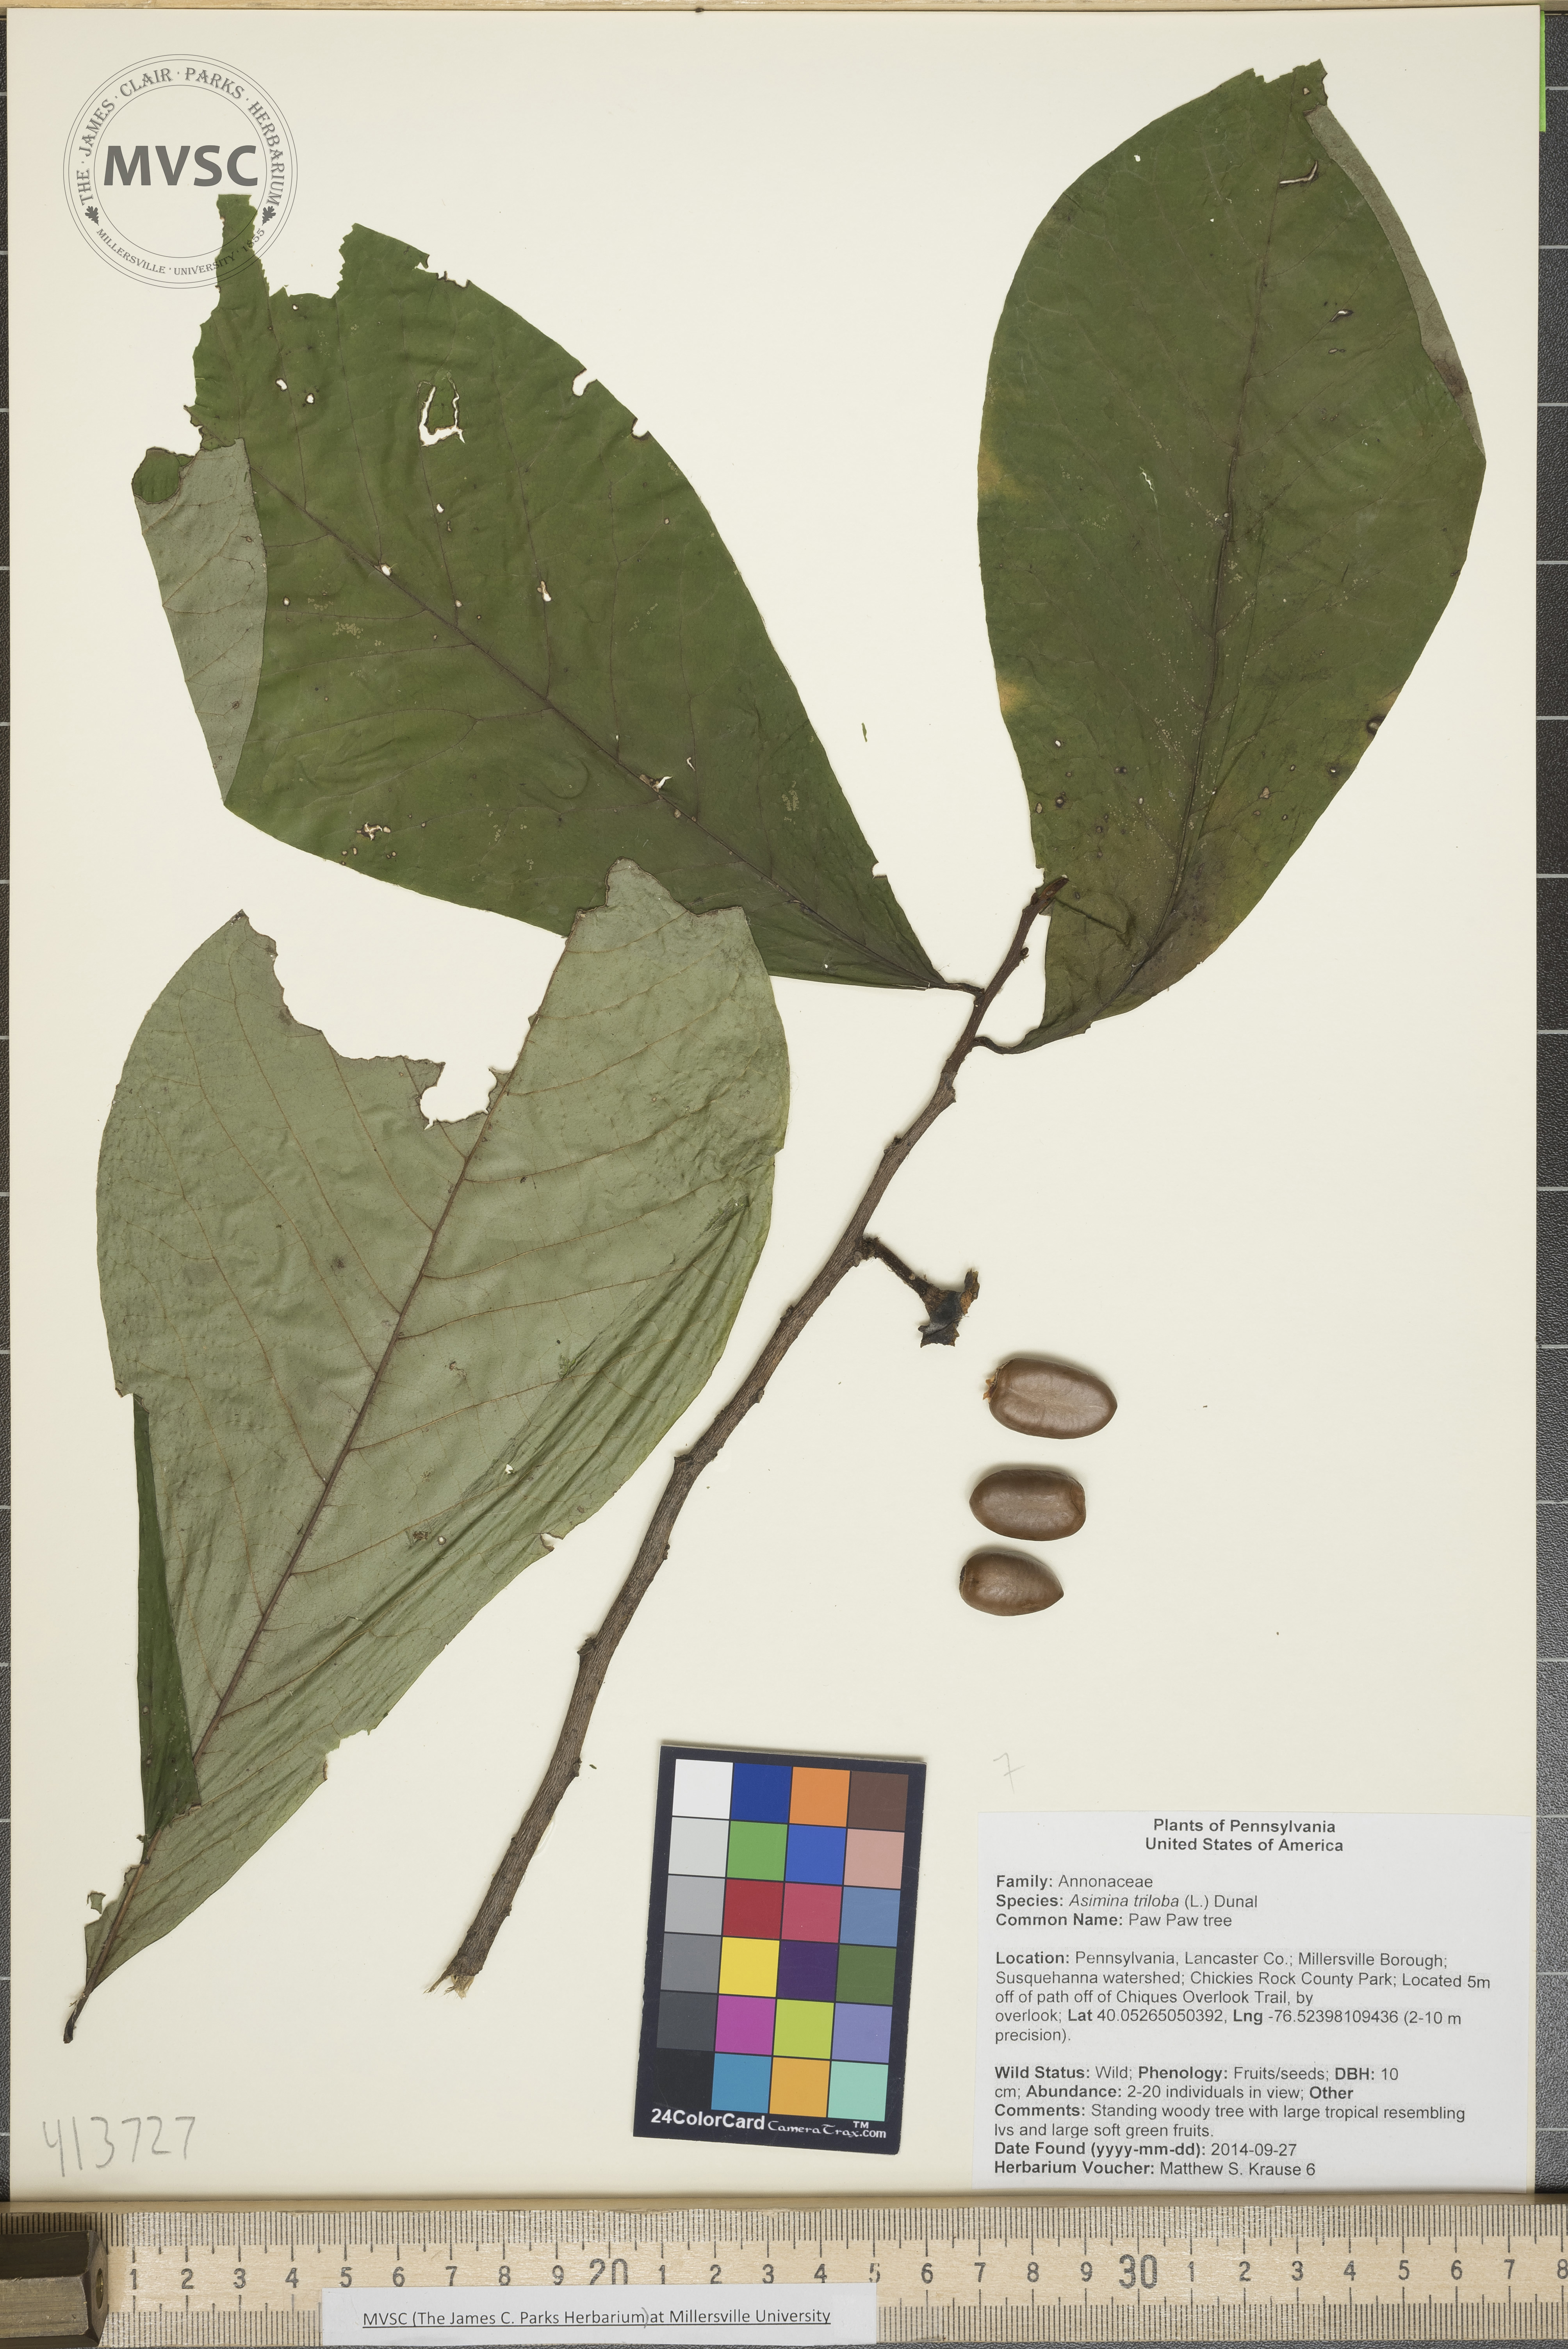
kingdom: Plantae
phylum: Tracheophyta
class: Magnoliopsida
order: Magnoliales
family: Annonaceae
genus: Asimina
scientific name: Asimina triloba
